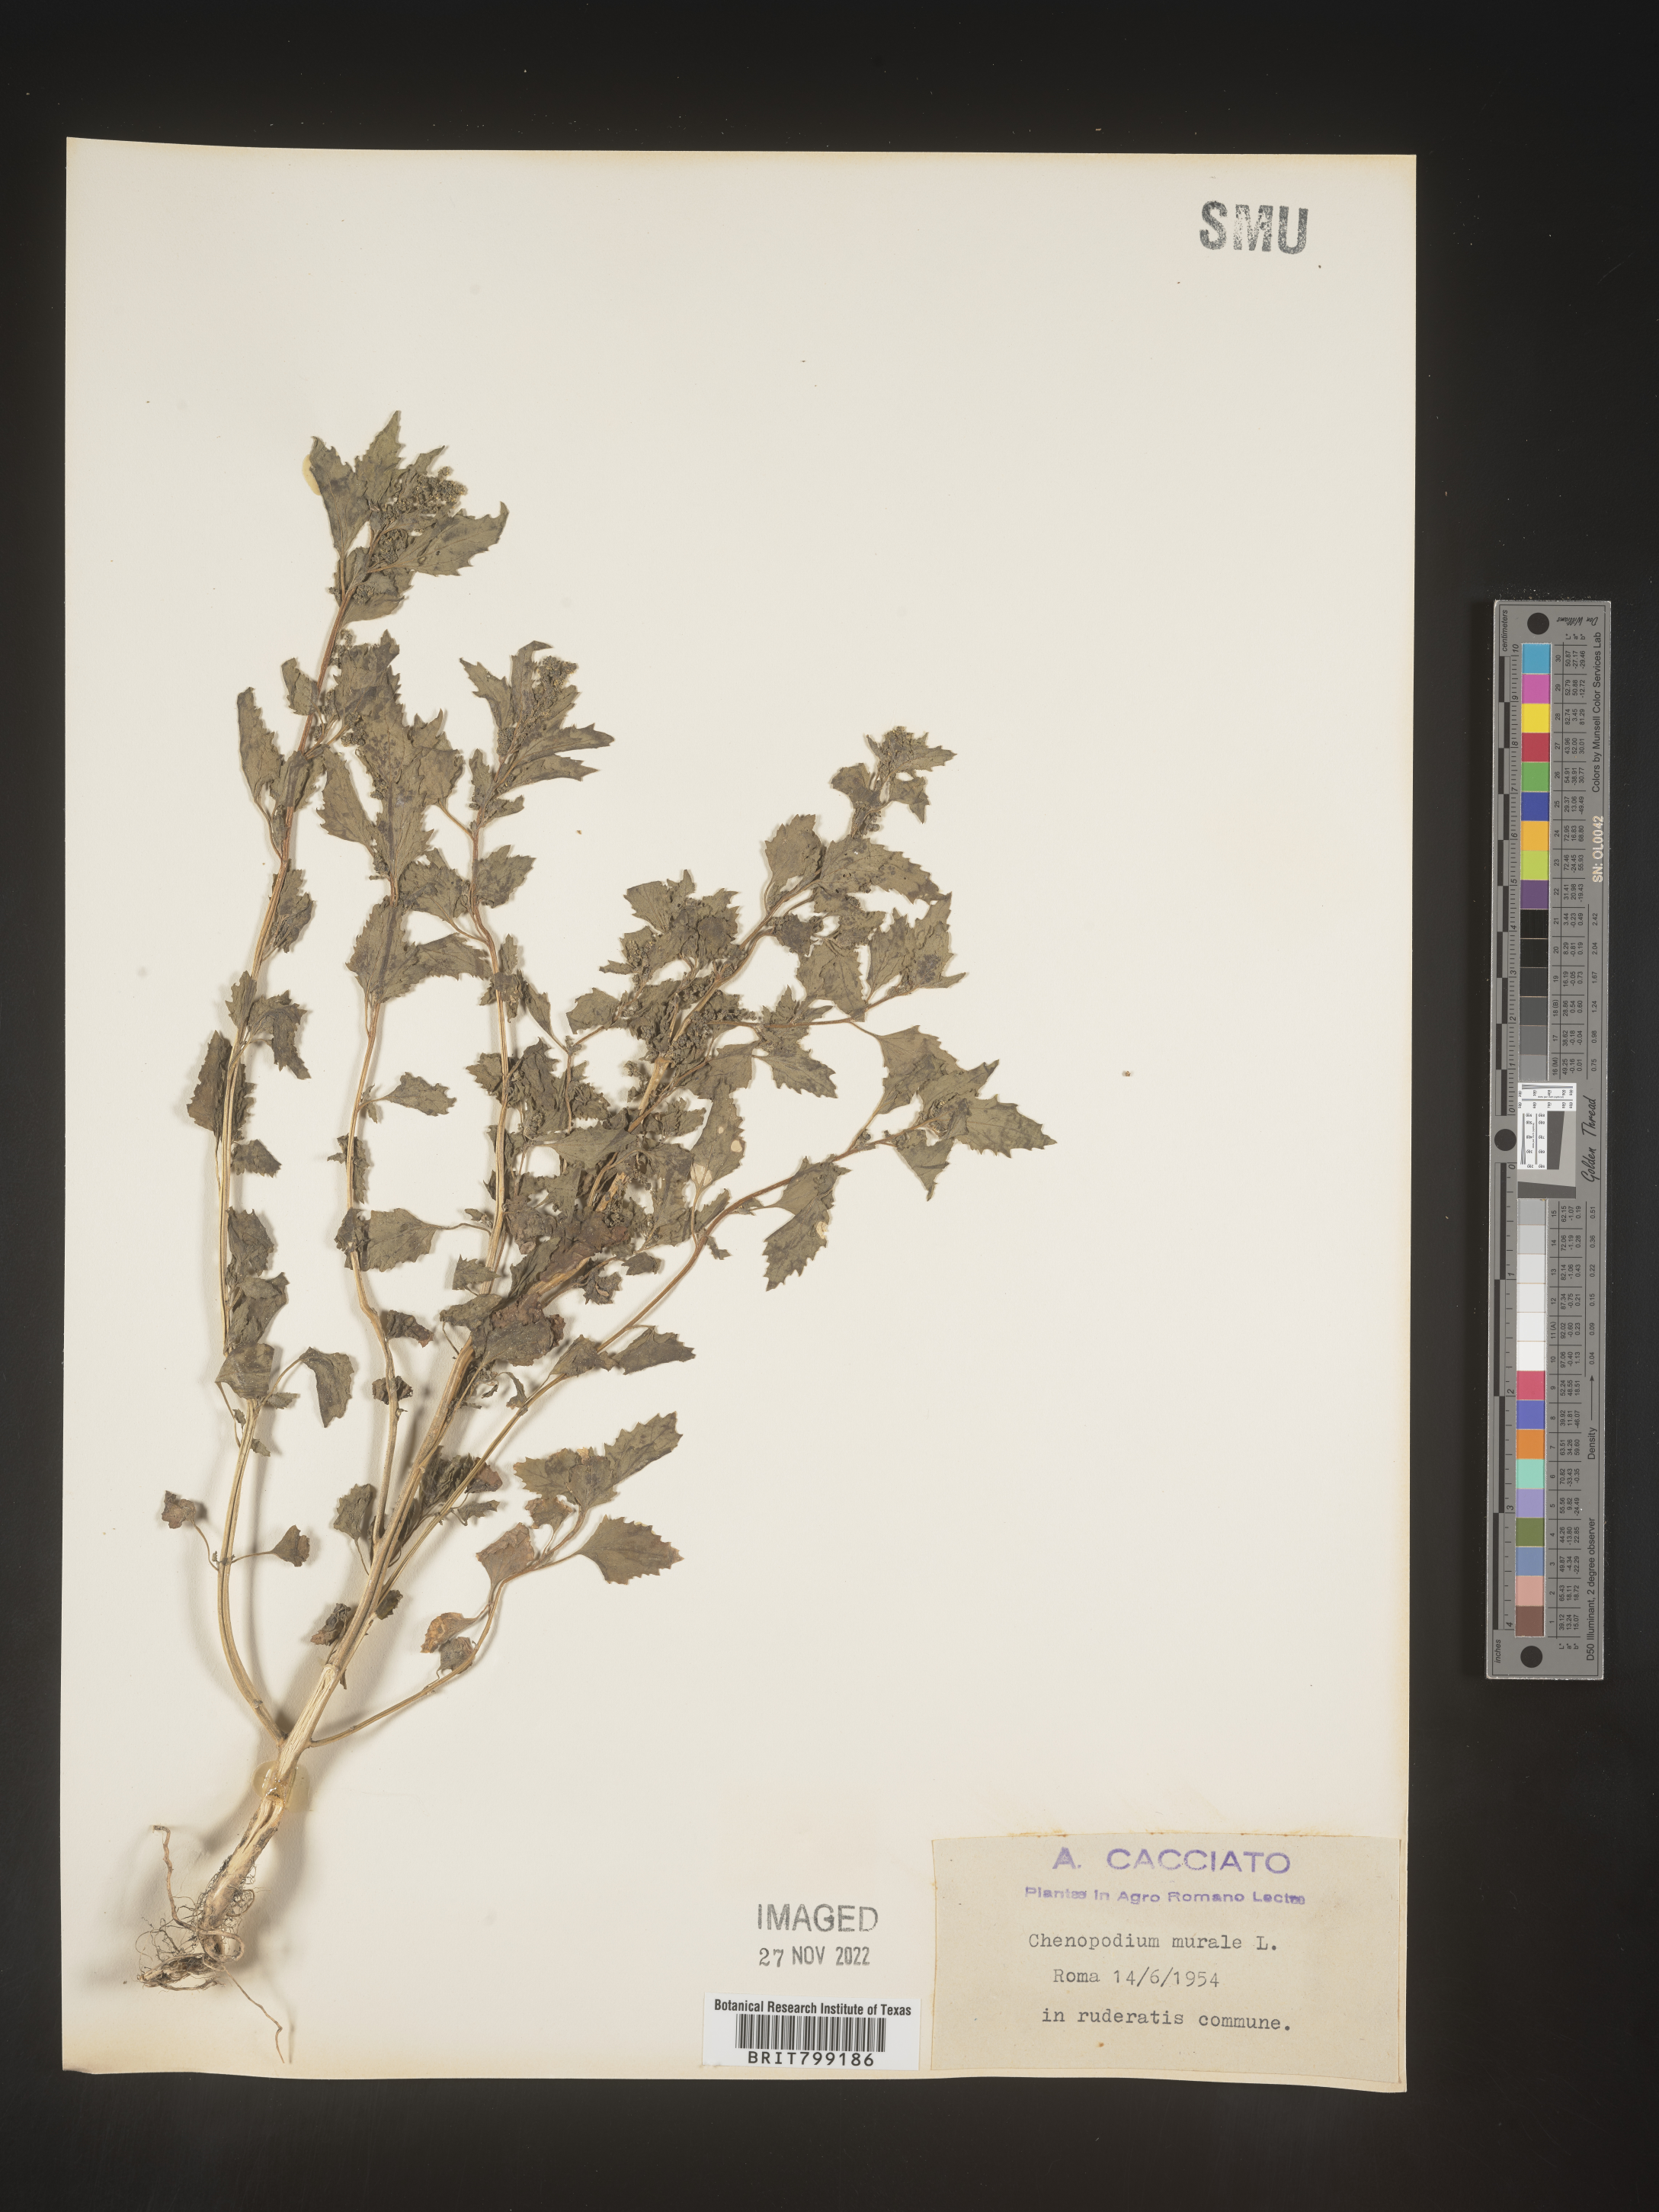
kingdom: Plantae
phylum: Tracheophyta
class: Magnoliopsida
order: Caryophyllales
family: Amaranthaceae
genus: Chenopodiastrum
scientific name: Chenopodiastrum murale
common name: Sowbane
